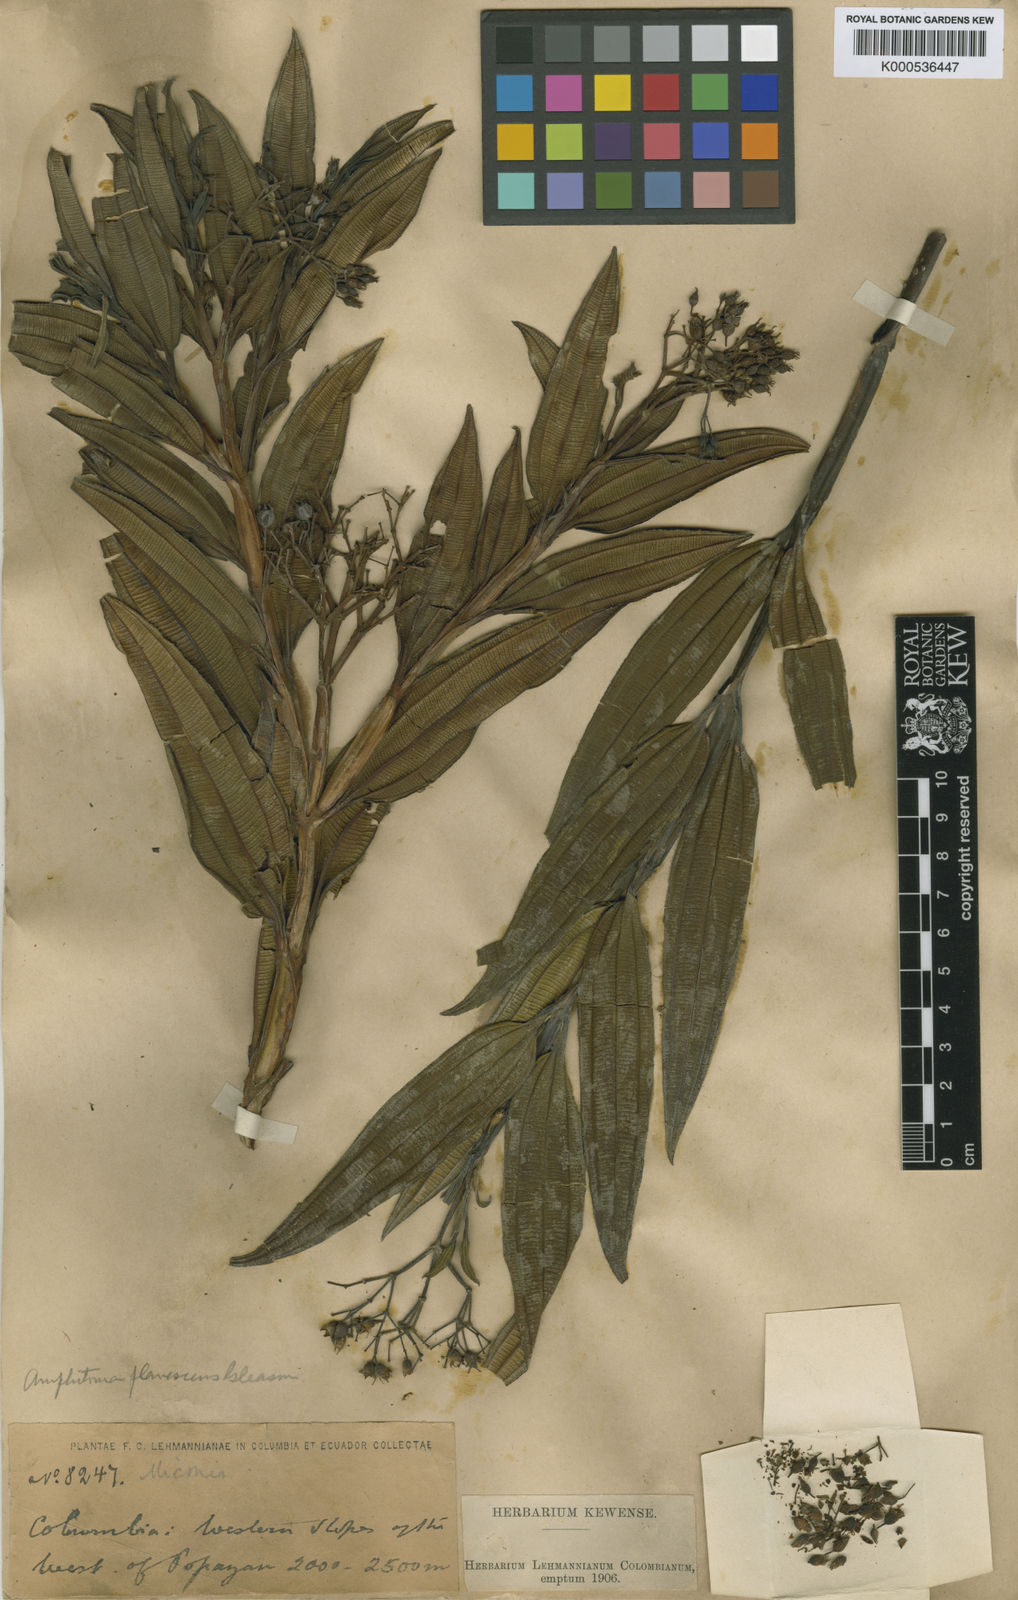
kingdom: Plantae
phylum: Tracheophyta
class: Magnoliopsida
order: Myrtales
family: Melastomataceae
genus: Miconia
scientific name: Miconia micayana
